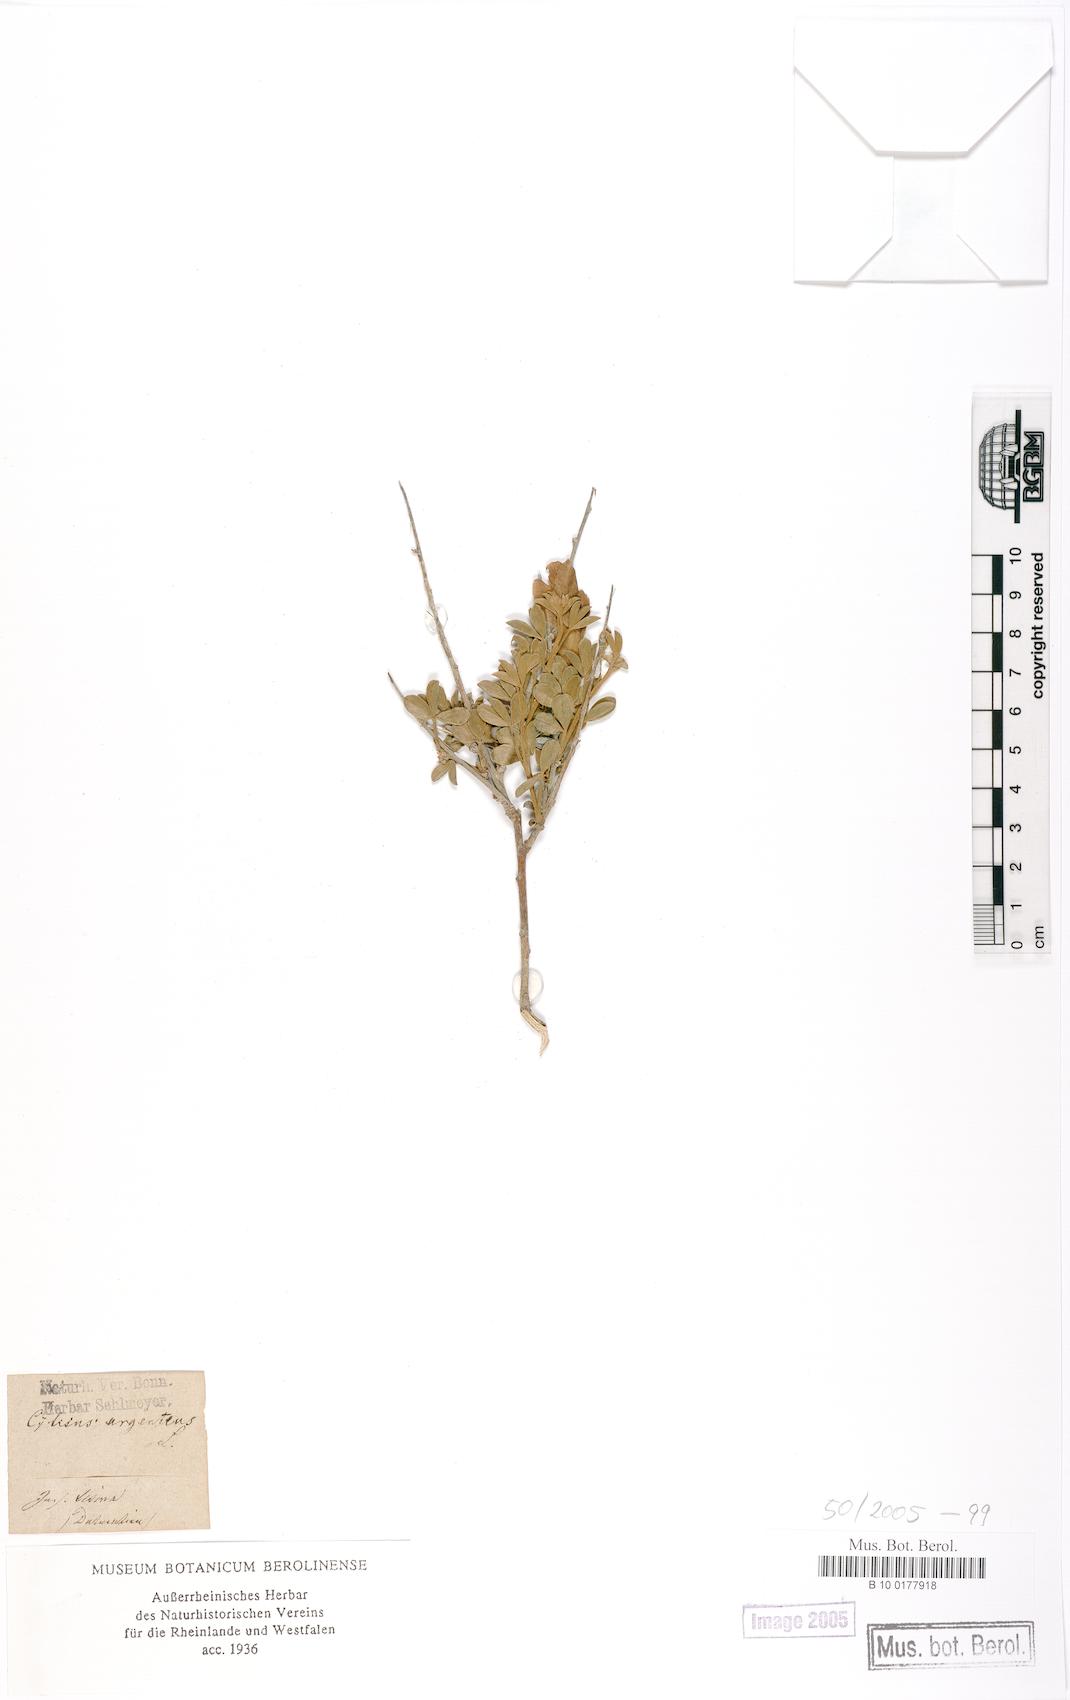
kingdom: Plantae
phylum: Tracheophyta
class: Magnoliopsida
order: Fabales
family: Fabaceae
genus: Argyrolobium
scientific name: Argyrolobium zanonii
